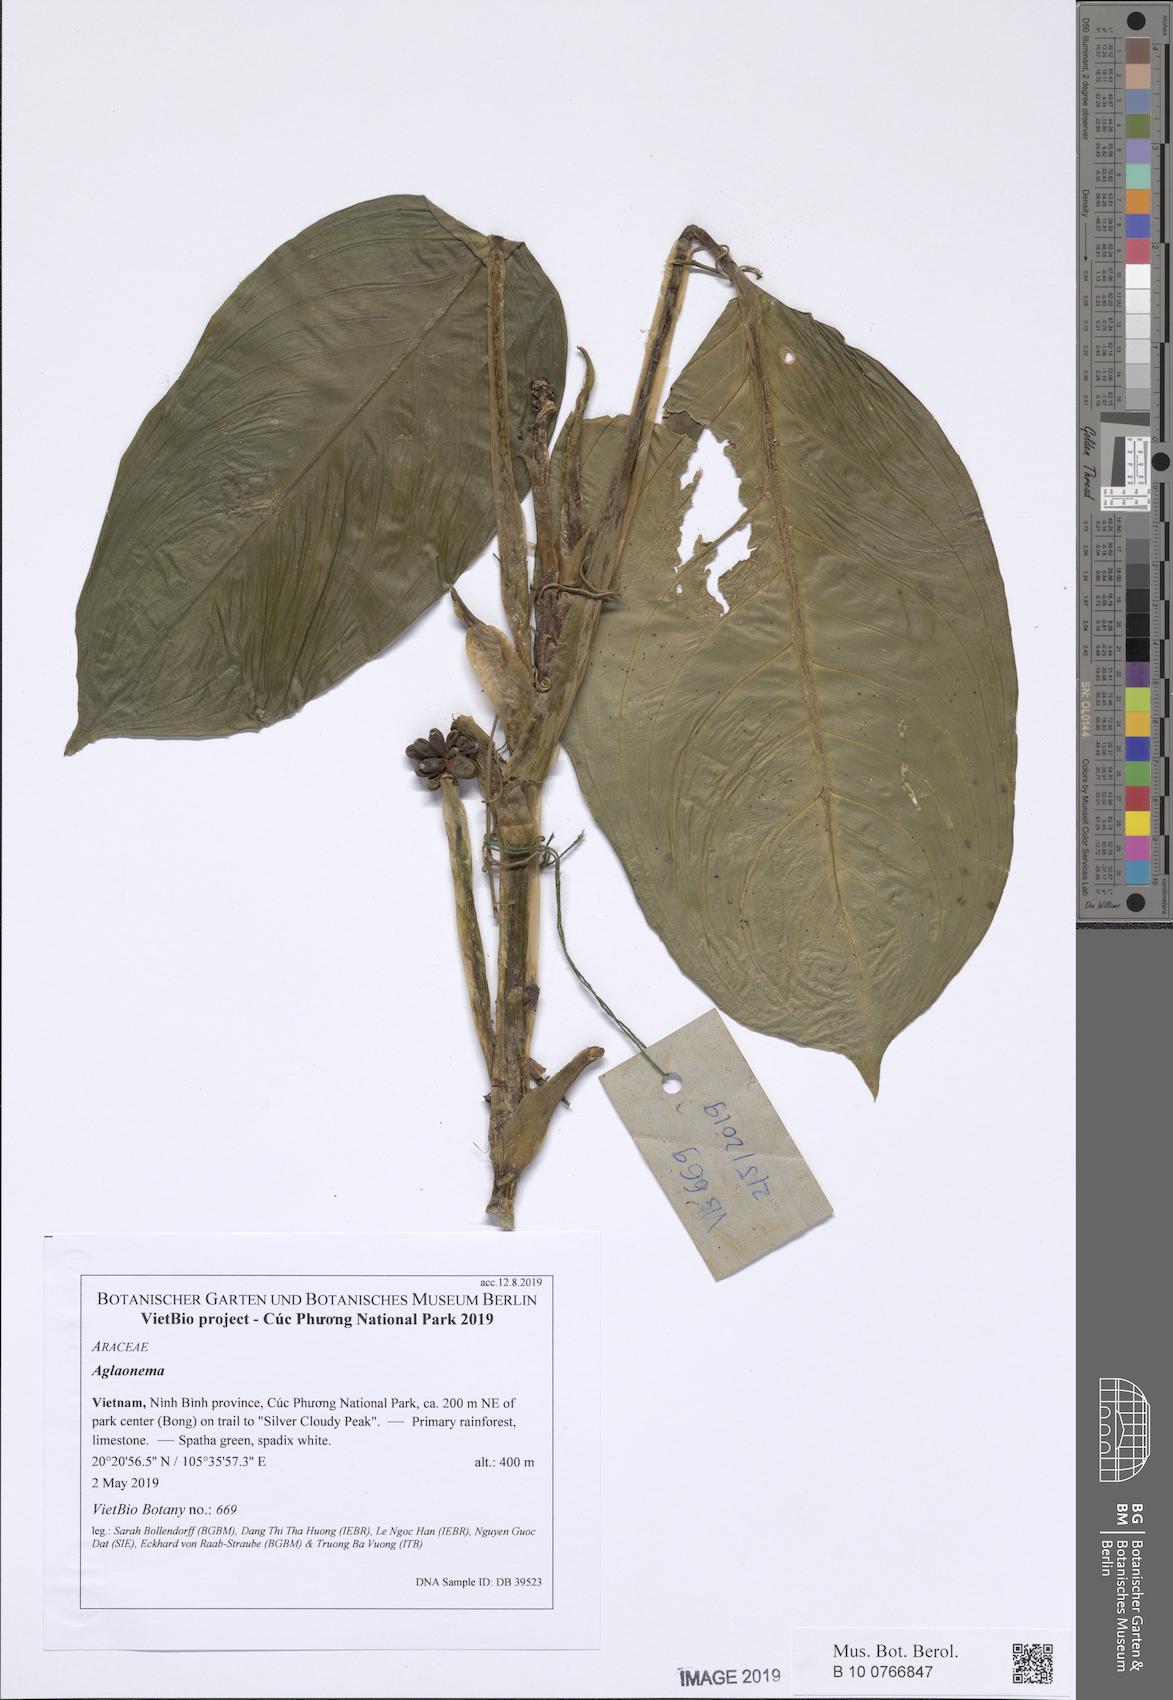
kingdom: Plantae
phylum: Tracheophyta
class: Liliopsida
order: Alismatales
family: Araceae
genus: Aglaonema
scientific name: Aglaonema modestum
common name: Chinese evergreen
